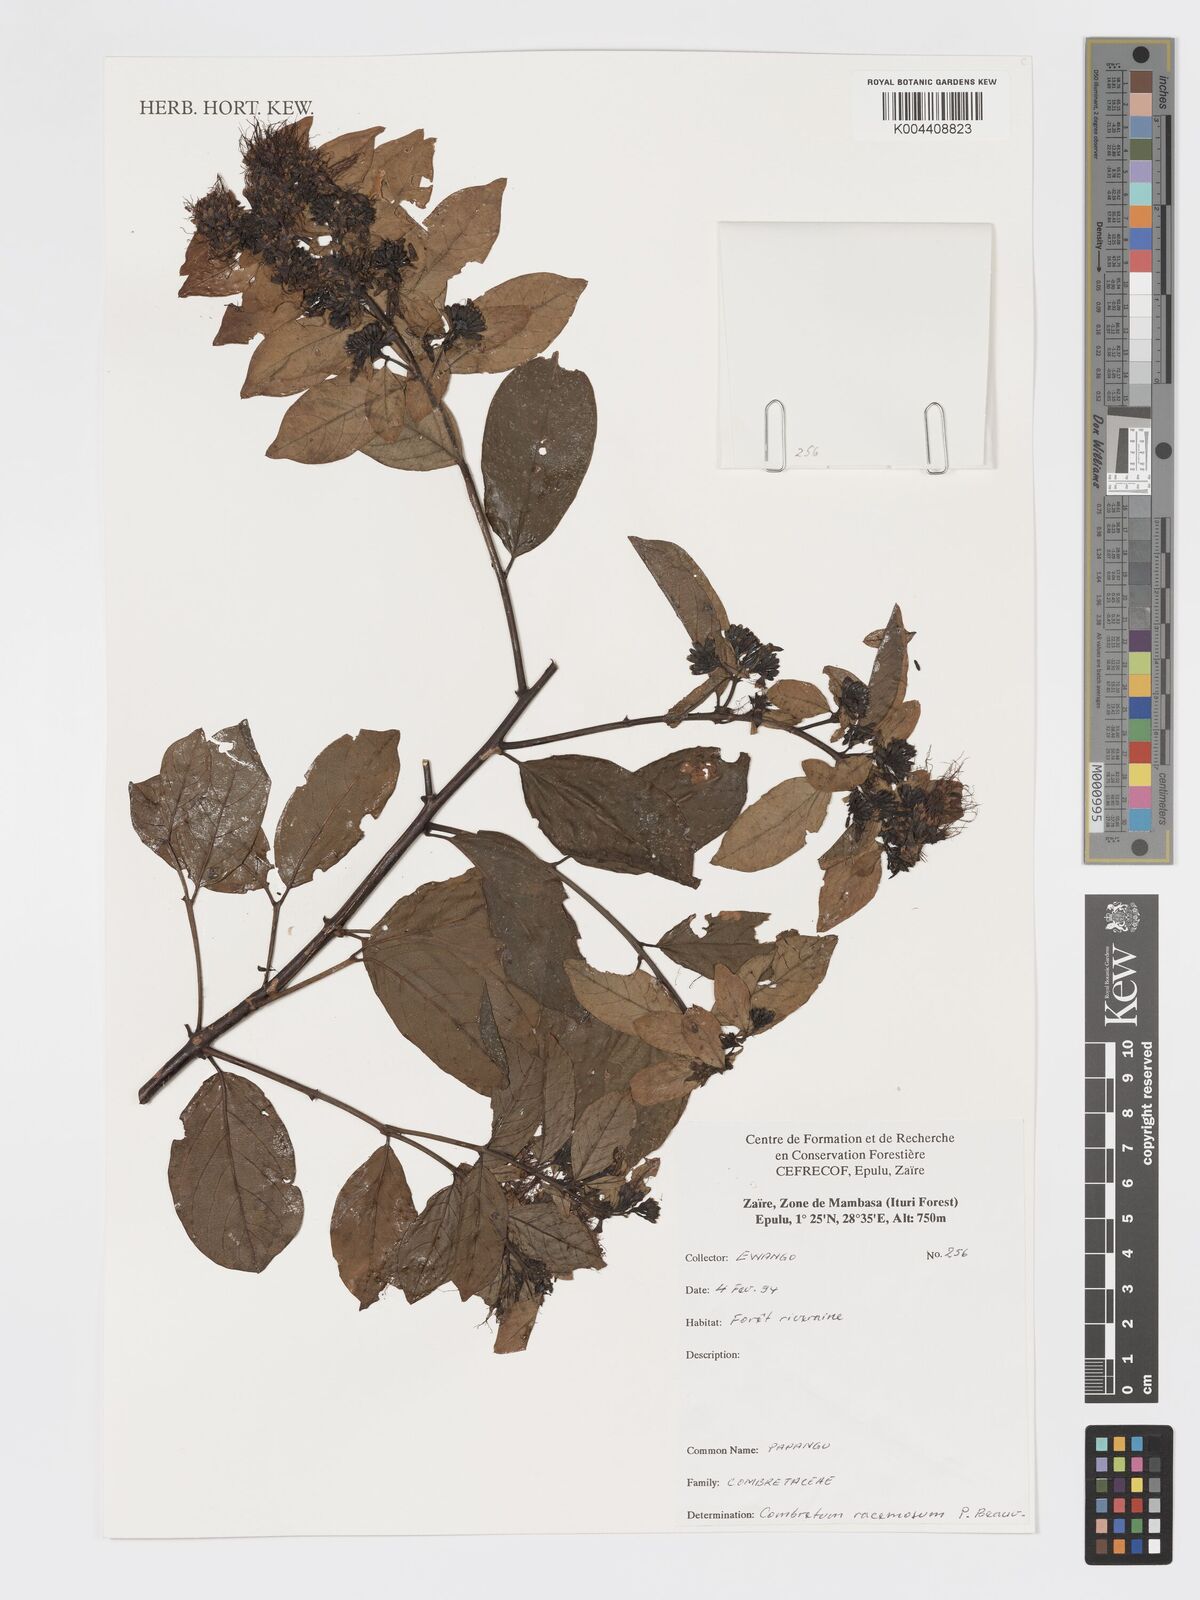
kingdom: Plantae
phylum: Tracheophyta
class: Magnoliopsida
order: Myrtales
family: Combretaceae
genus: Combretum
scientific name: Combretum racemosum
